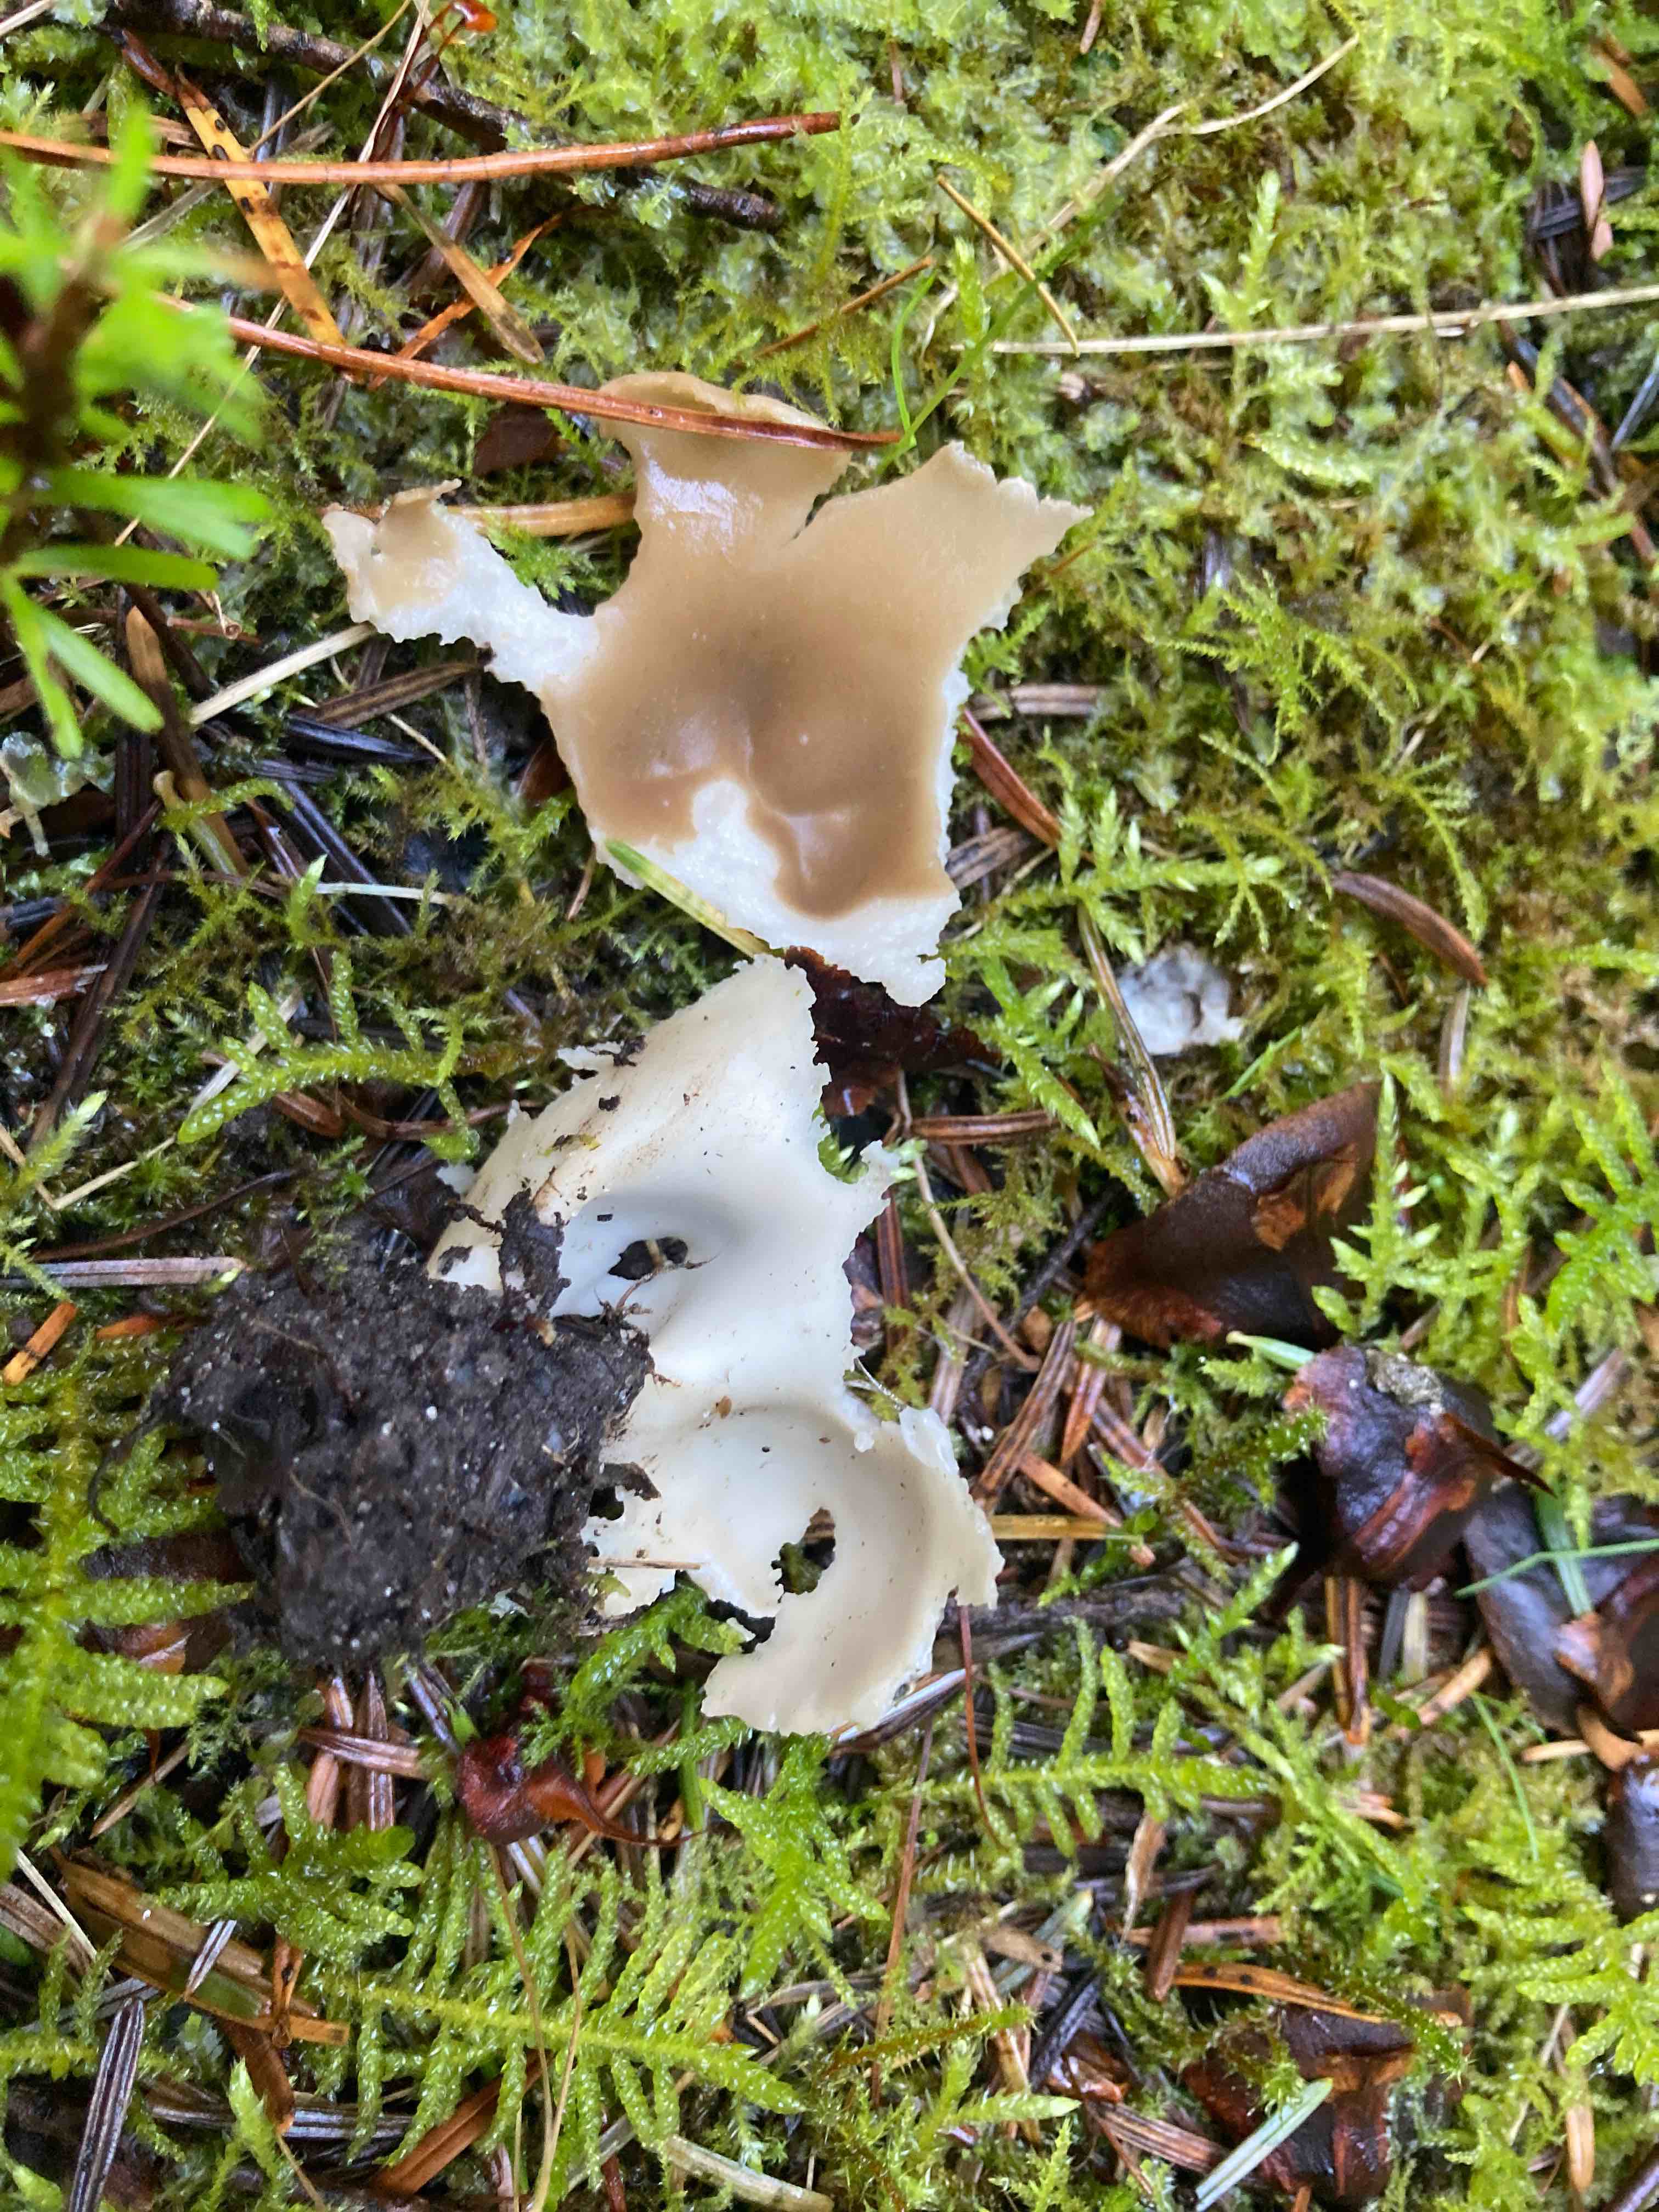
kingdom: Fungi
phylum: Ascomycota
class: Pezizomycetes
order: Pezizales
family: Helvellaceae
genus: Dissingia
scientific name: Dissingia confusa
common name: gran-foldhat
